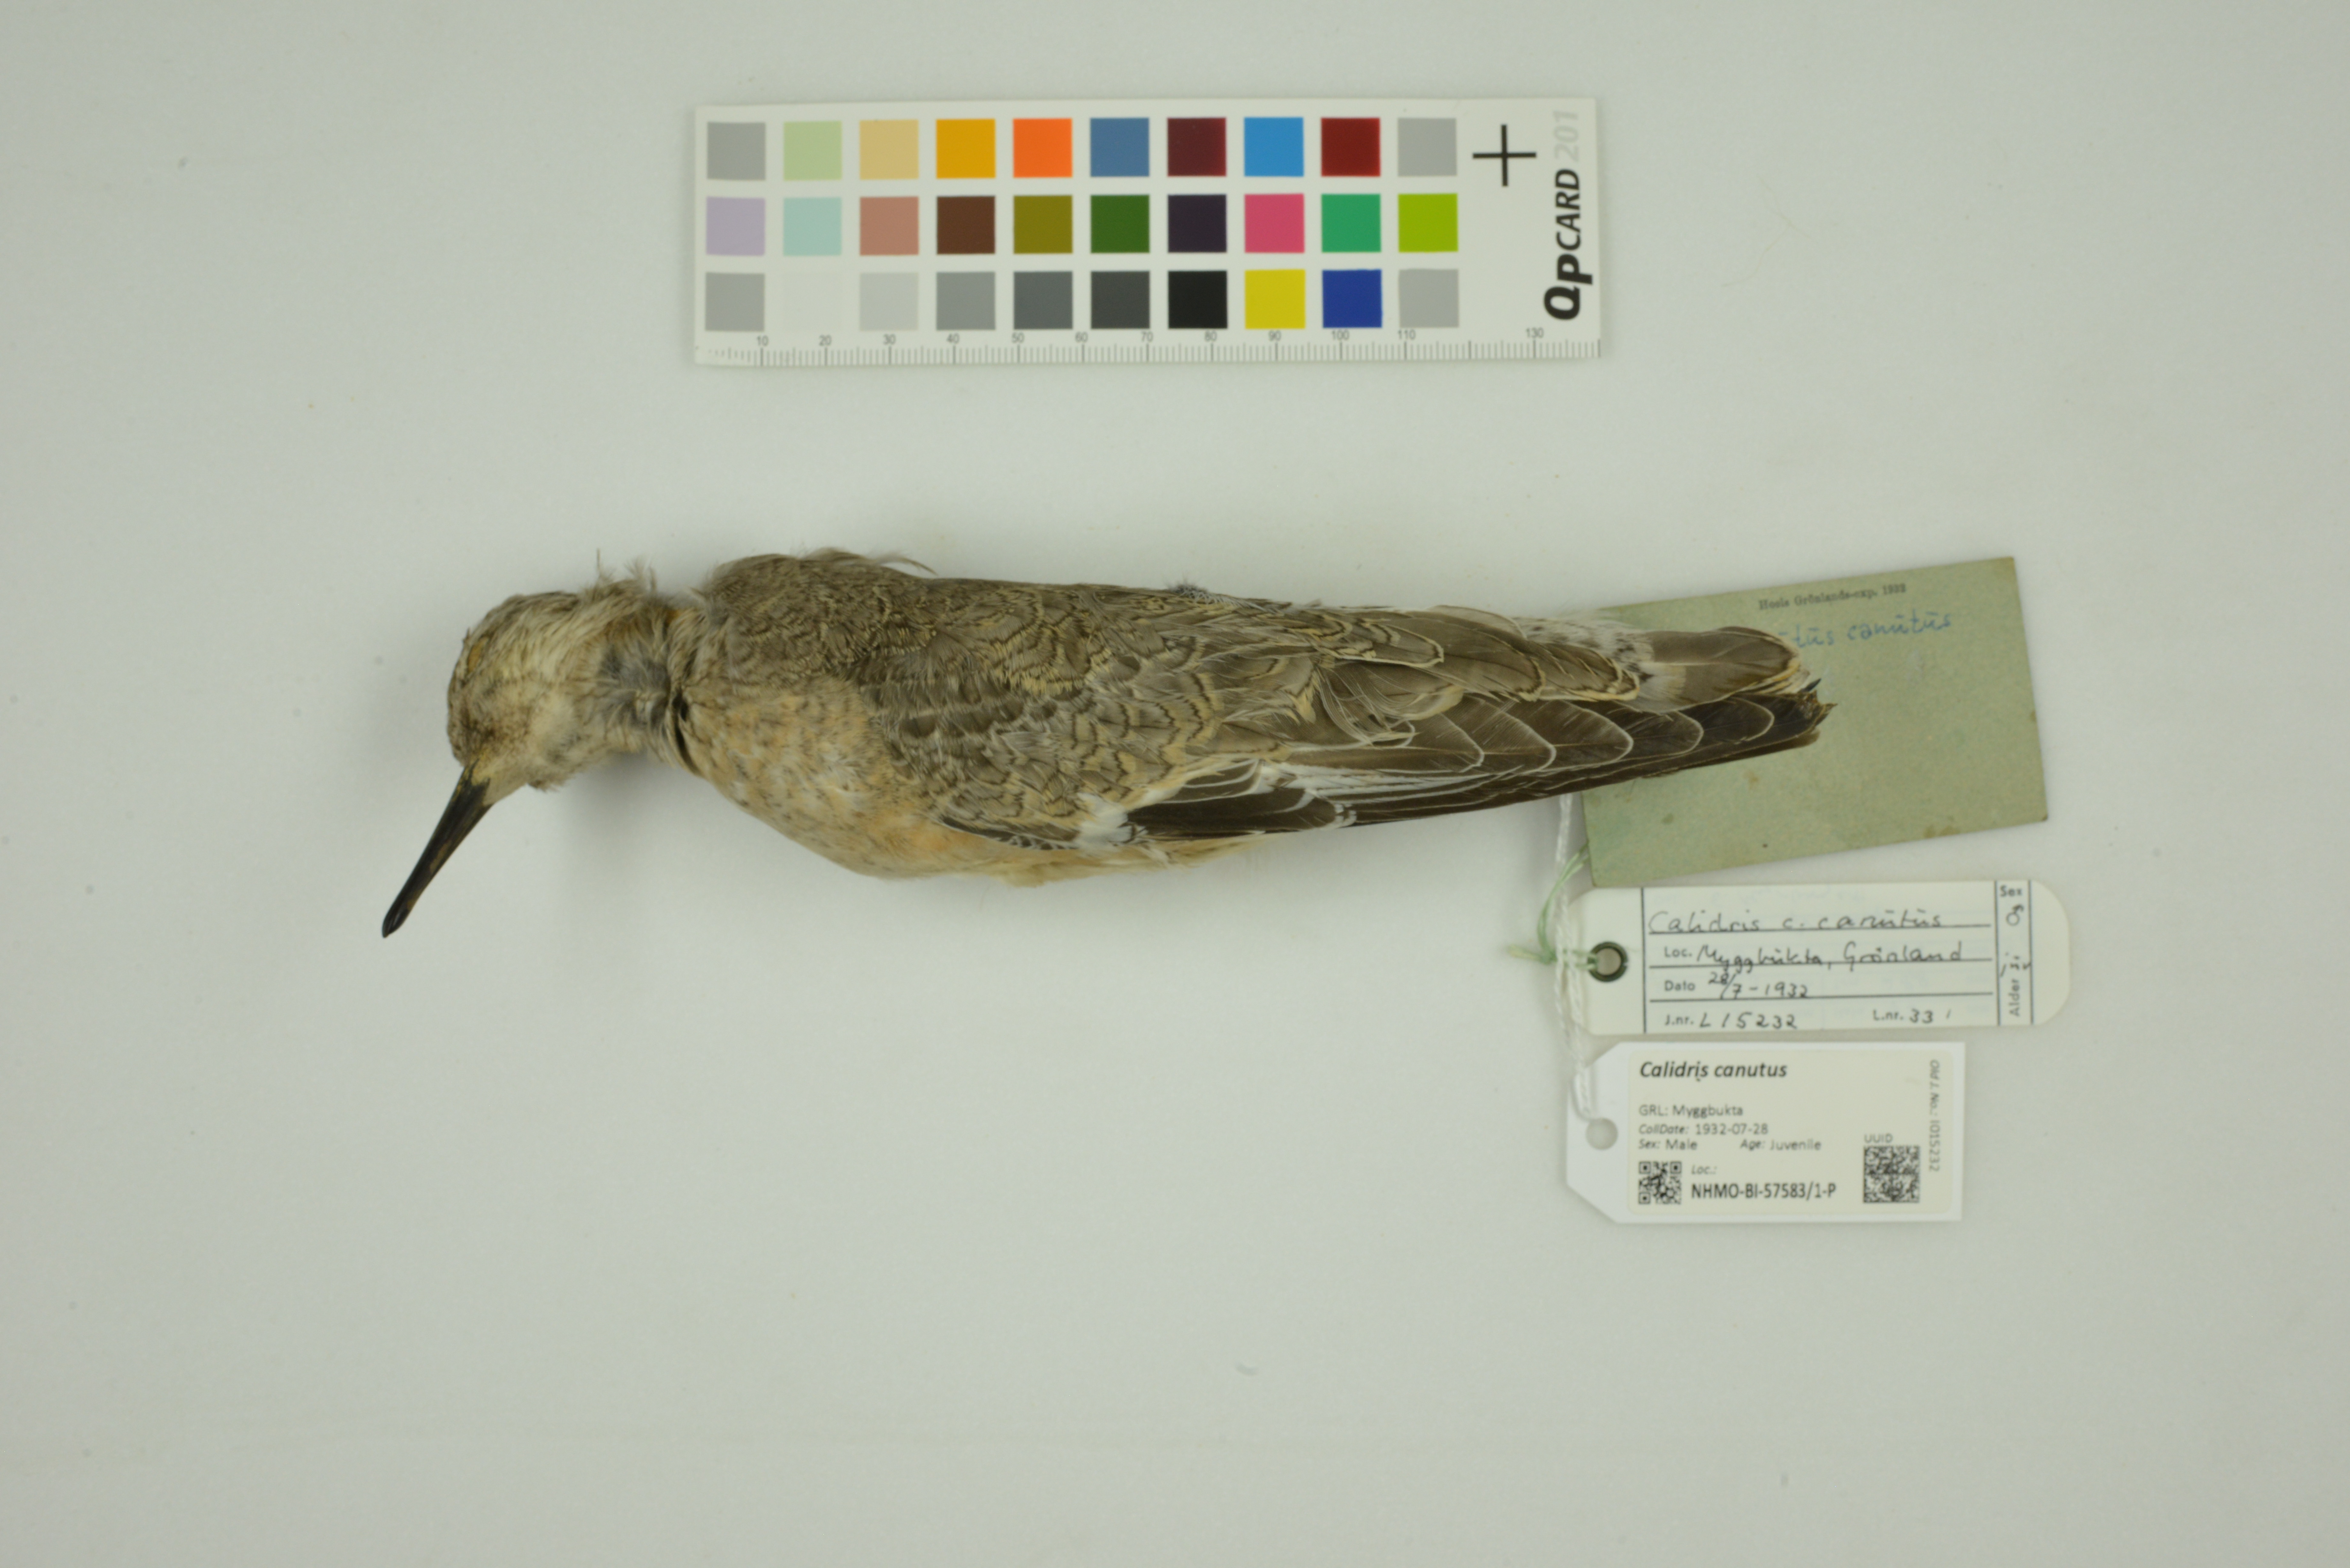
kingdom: Animalia
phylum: Chordata
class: Aves
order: Charadriiformes
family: Scolopacidae
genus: Calidris
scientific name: Calidris canutus
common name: Red knot
